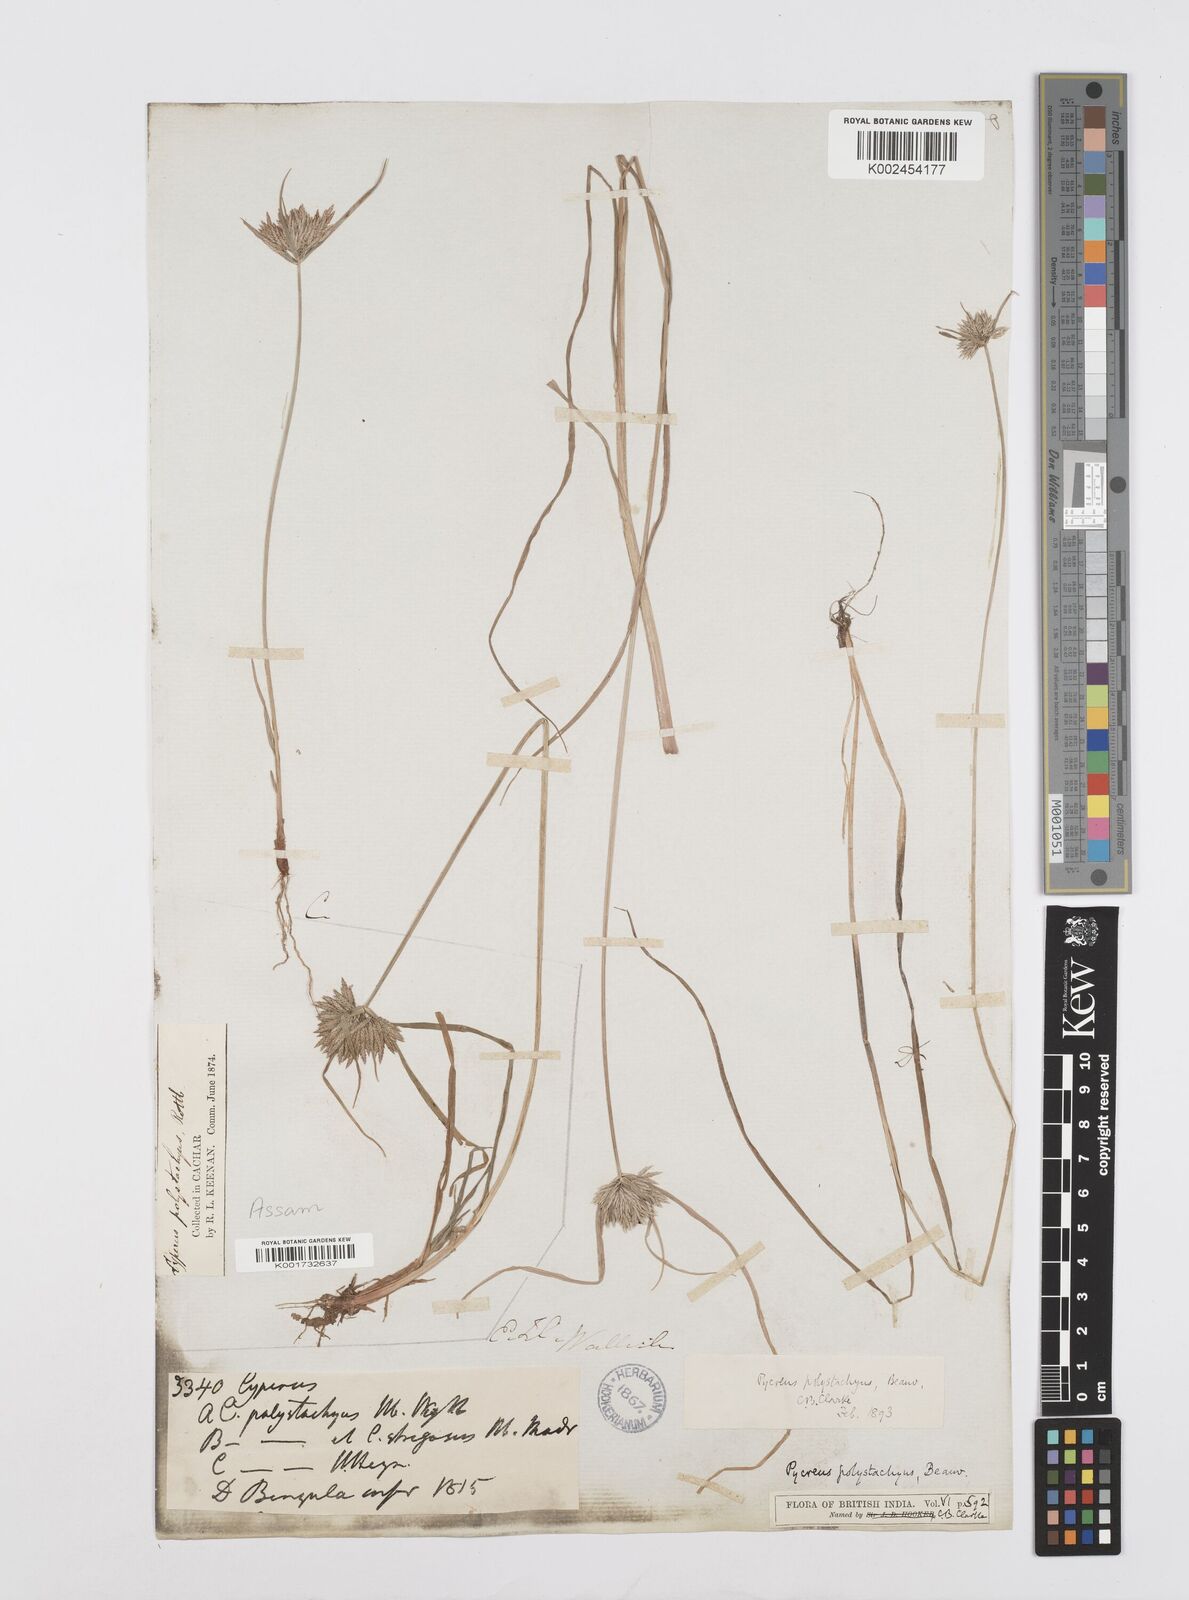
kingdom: Plantae
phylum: Tracheophyta
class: Liliopsida
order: Poales
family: Cyperaceae
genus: Cyperus
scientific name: Cyperus polystachyos
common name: Bunchy flat sedge
